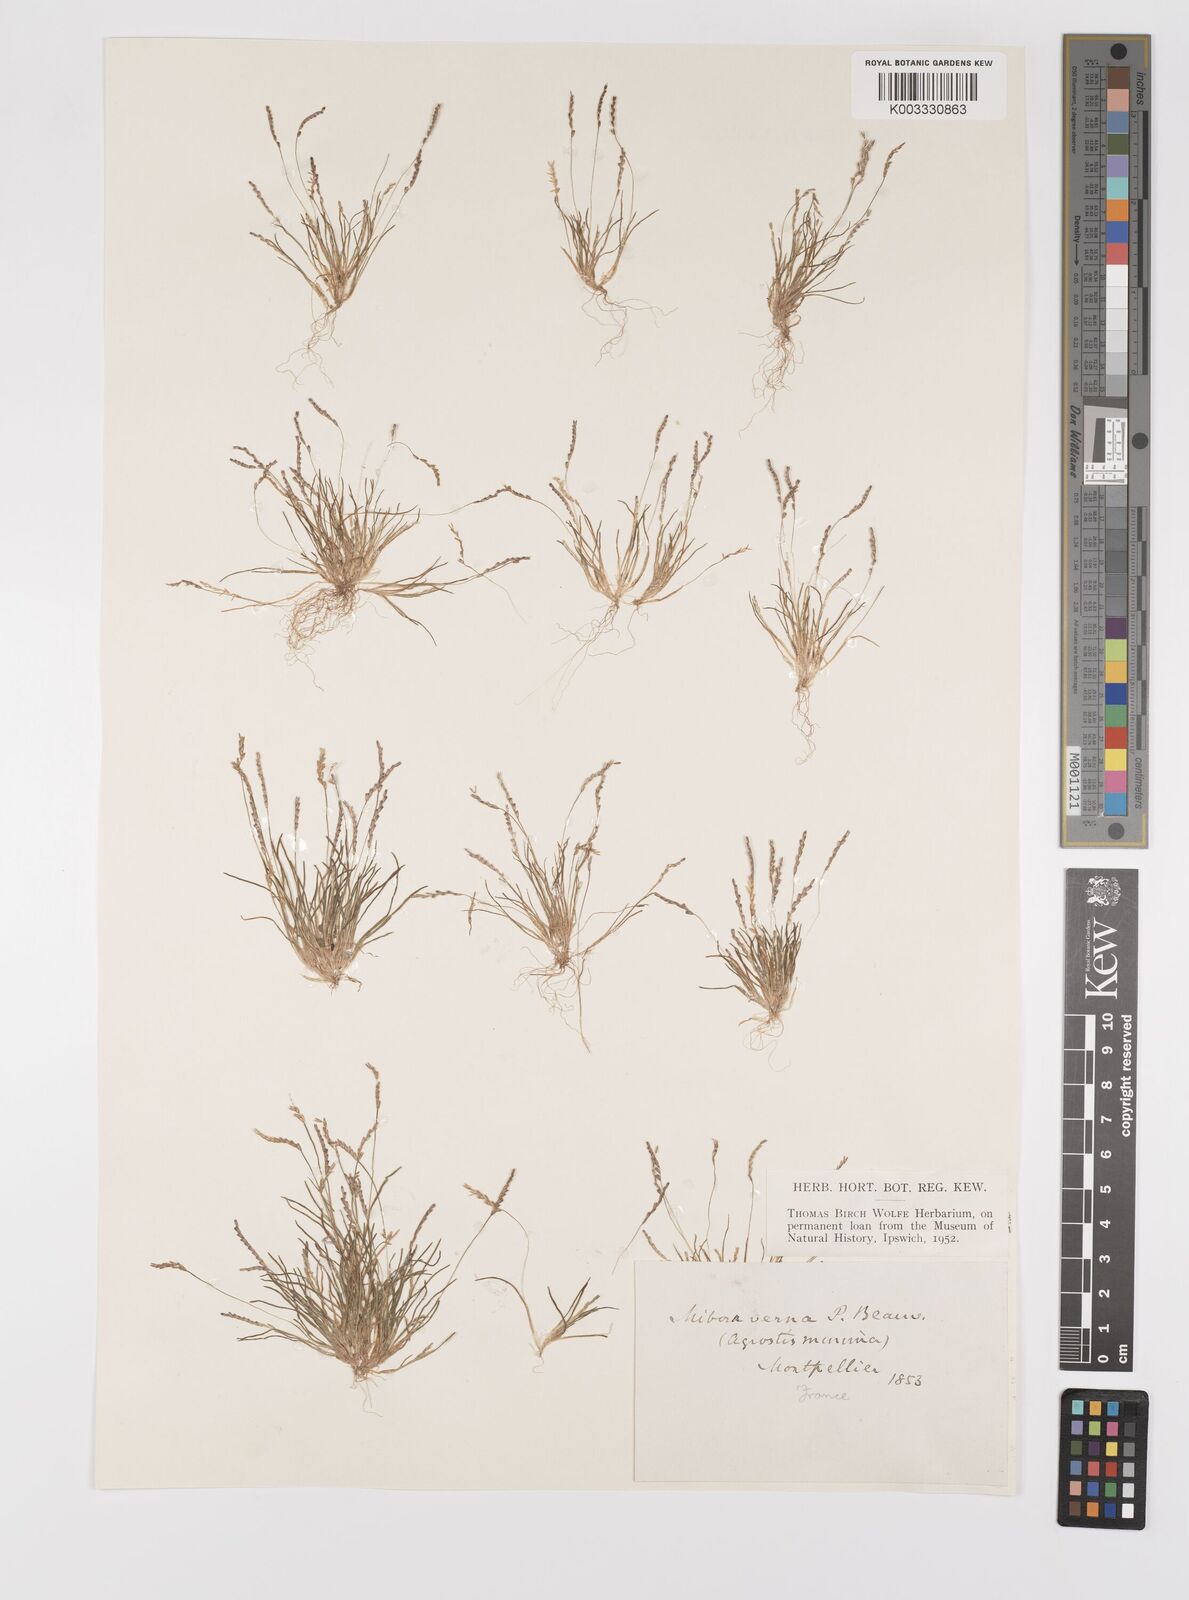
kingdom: Plantae
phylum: Tracheophyta
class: Liliopsida
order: Poales
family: Poaceae
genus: Mibora
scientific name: Mibora minima
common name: Early sand-grass
